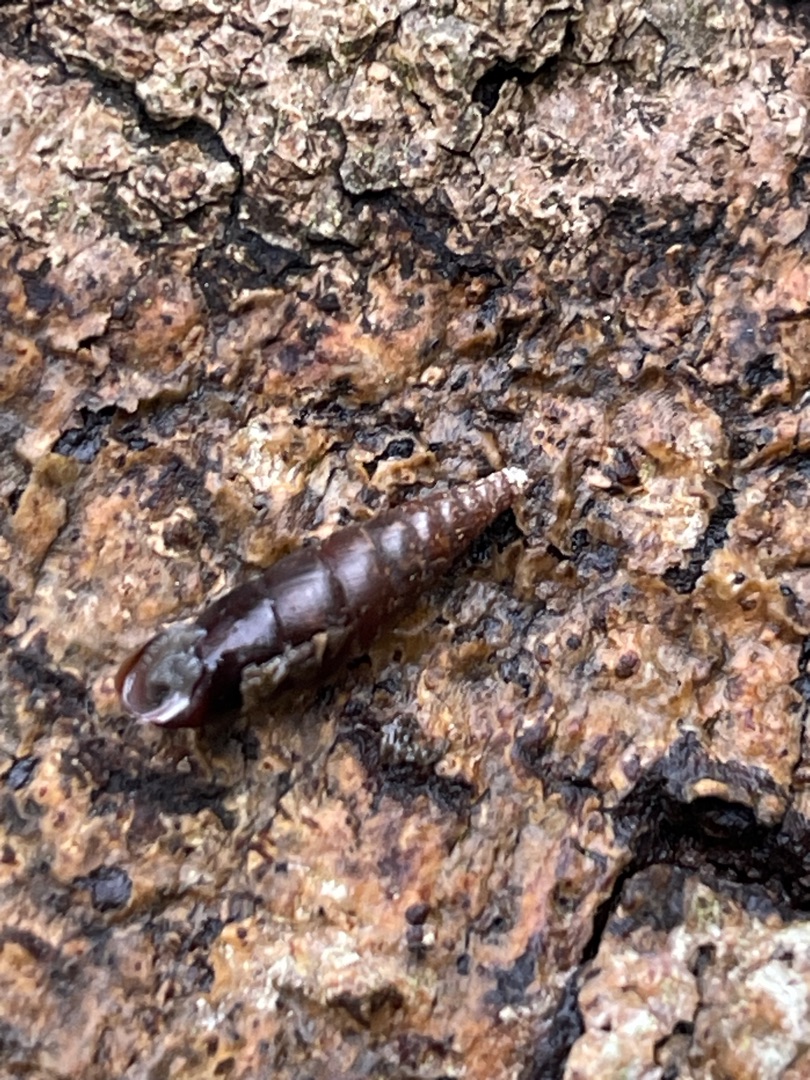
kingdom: Animalia
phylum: Mollusca
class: Gastropoda
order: Stylommatophora
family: Clausiliidae
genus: Cochlodina
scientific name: Cochlodina laminata
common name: Glat foldsnegl
